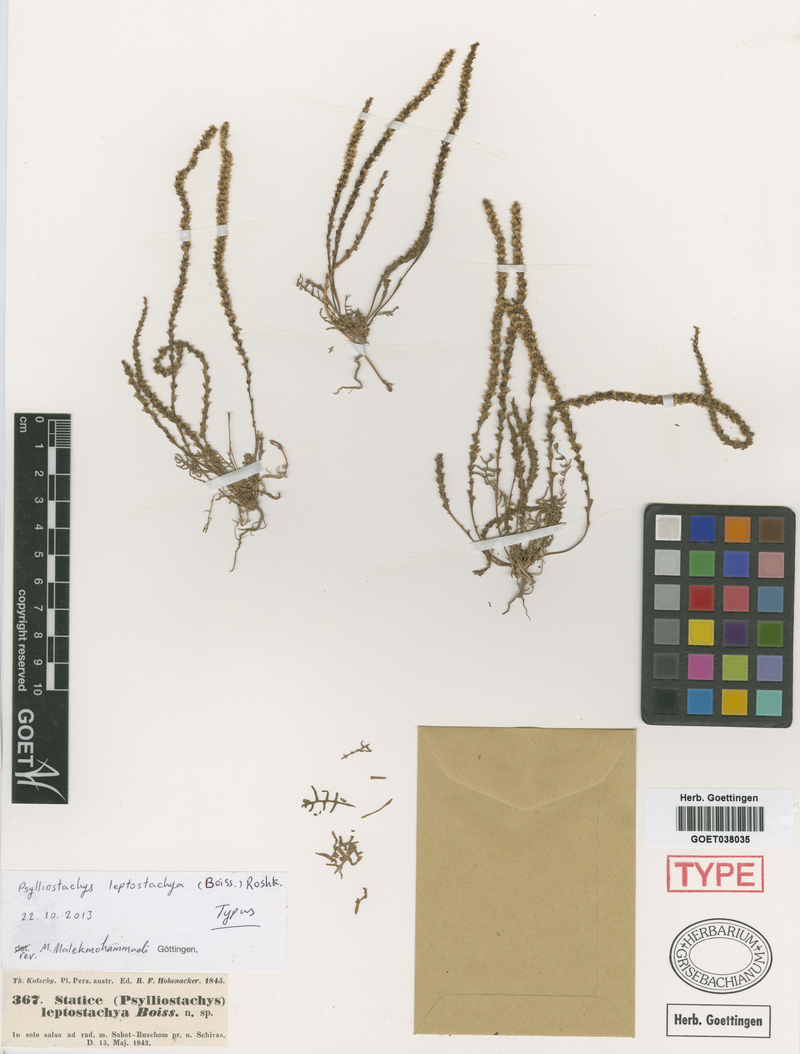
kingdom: Plantae
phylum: Tracheophyta
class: Magnoliopsida
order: Caryophyllales
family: Plumbaginaceae
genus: Psylliostachys
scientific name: Psylliostachys leptostachyus
